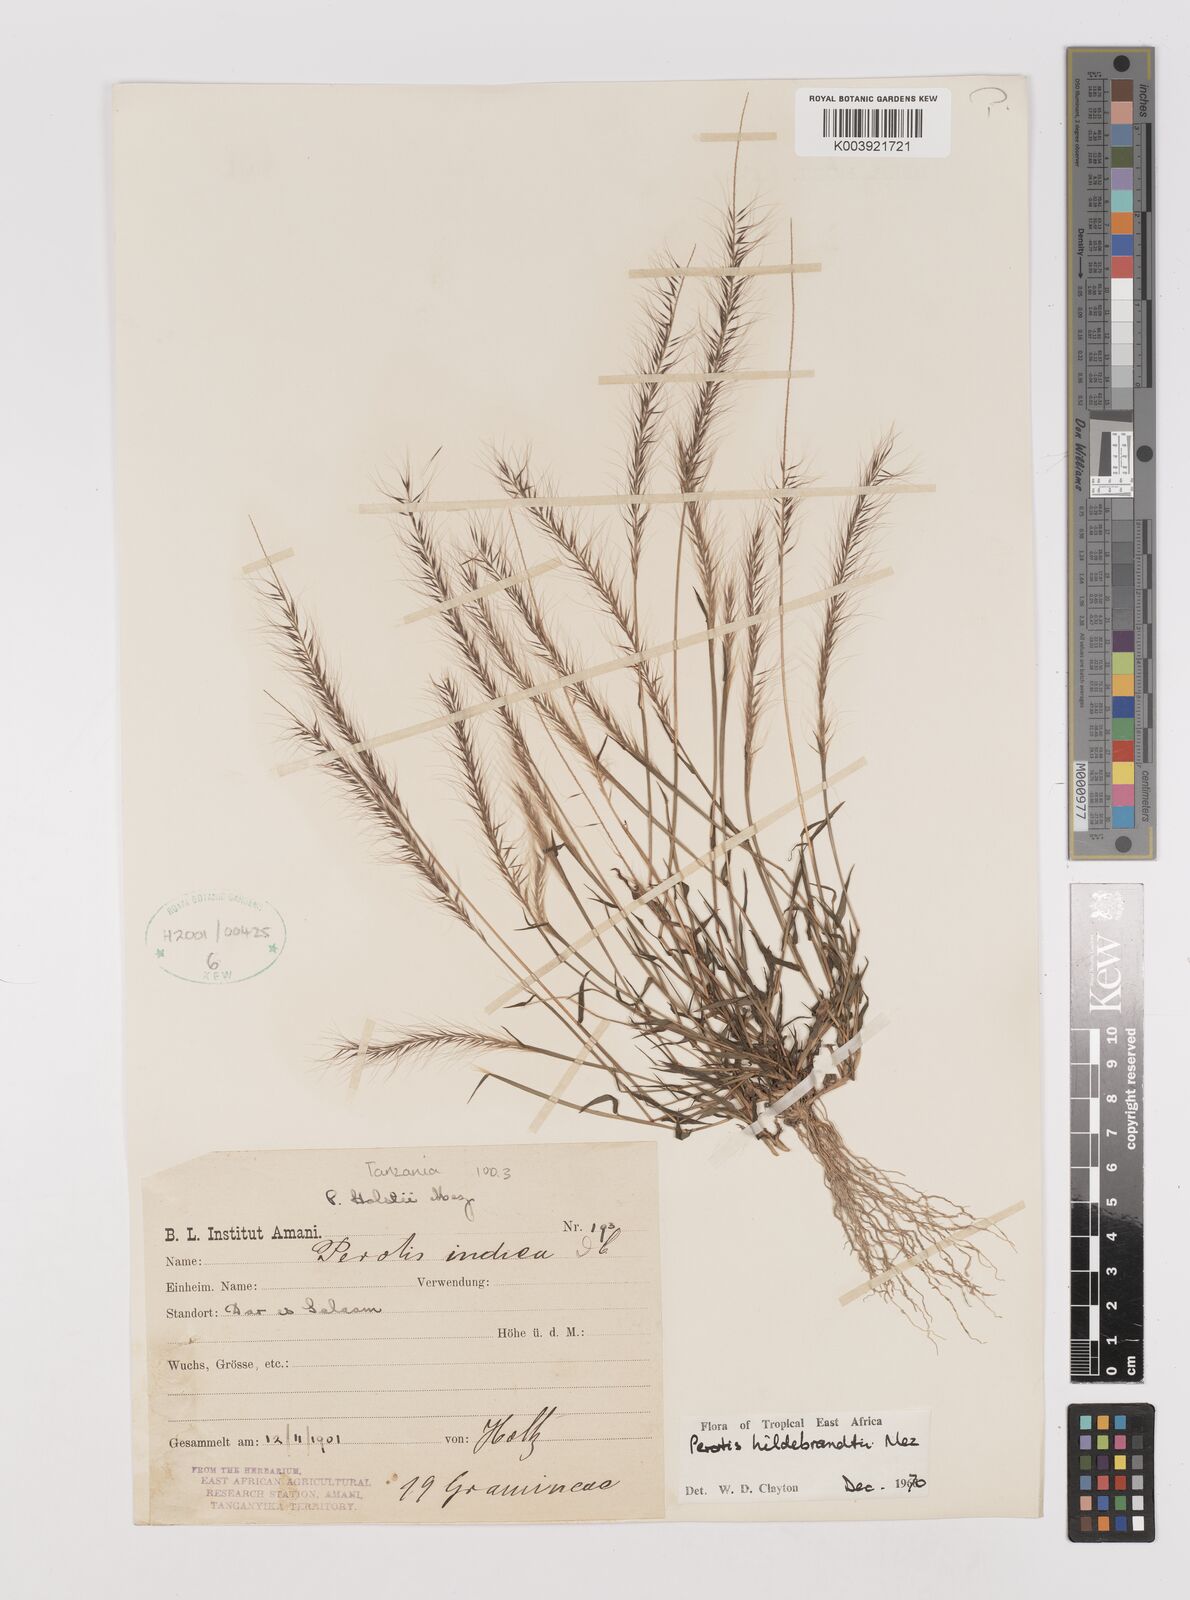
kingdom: Plantae
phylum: Tracheophyta
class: Liliopsida
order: Poales
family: Poaceae
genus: Perotis
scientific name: Perotis hildebrandtii
